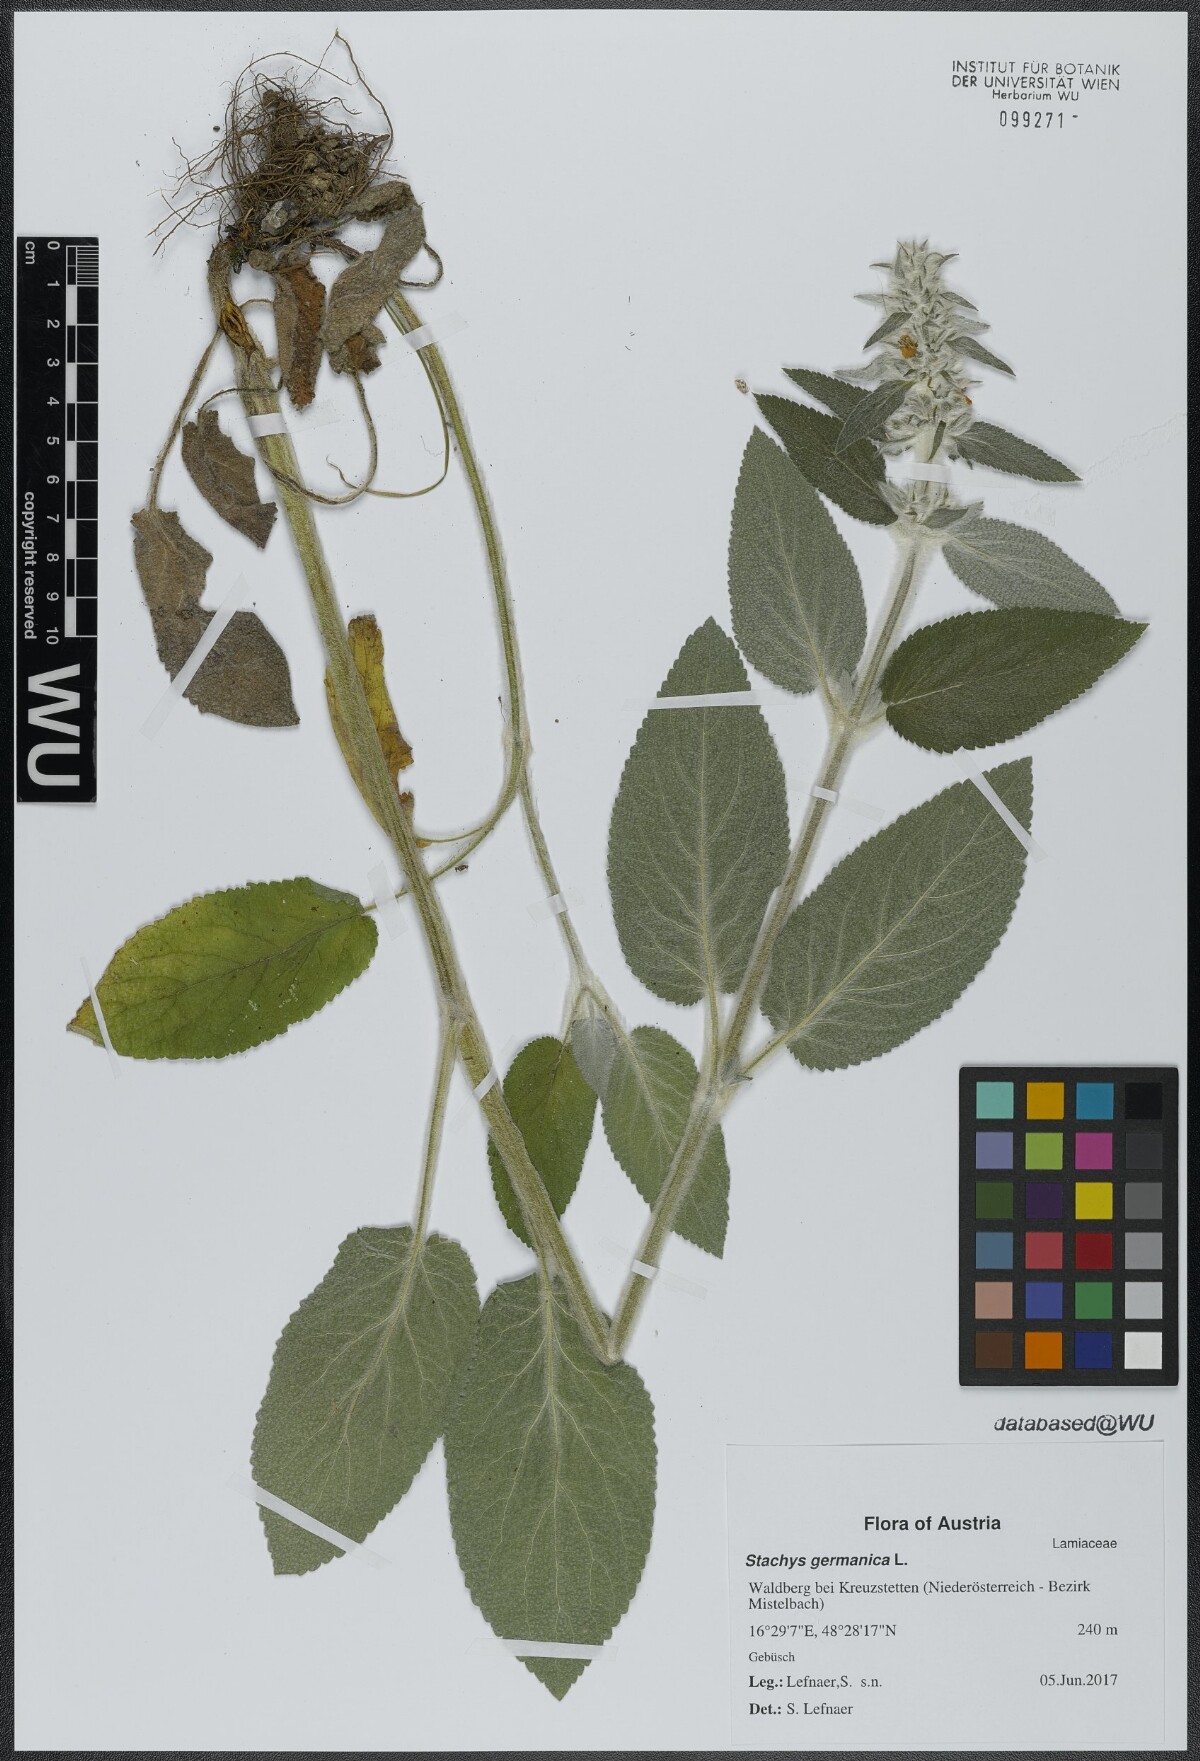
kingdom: Plantae
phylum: Tracheophyta
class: Magnoliopsida
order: Lamiales
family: Lamiaceae
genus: Stachys
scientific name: Stachys germanica
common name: Downy woundwort
